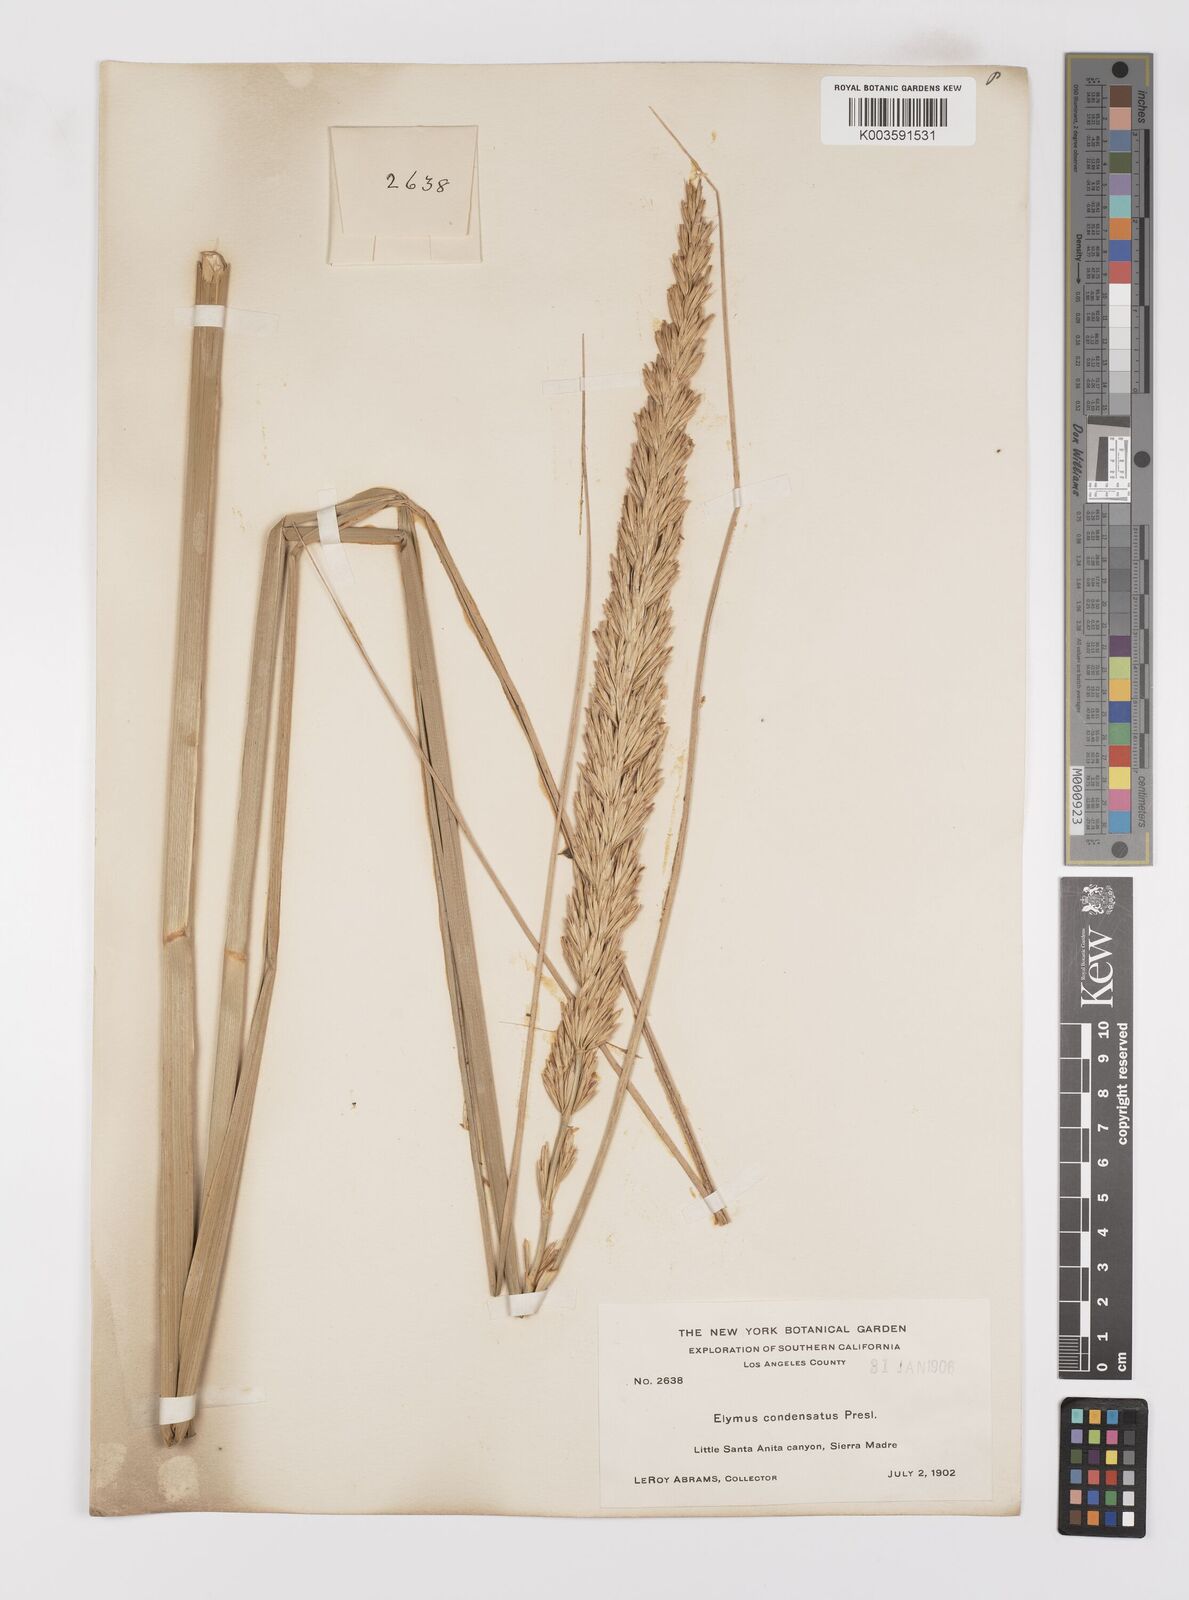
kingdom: Plantae
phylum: Tracheophyta
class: Liliopsida
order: Poales
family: Poaceae
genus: Leymus
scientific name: Leymus condensatus
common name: Giant wild rye
